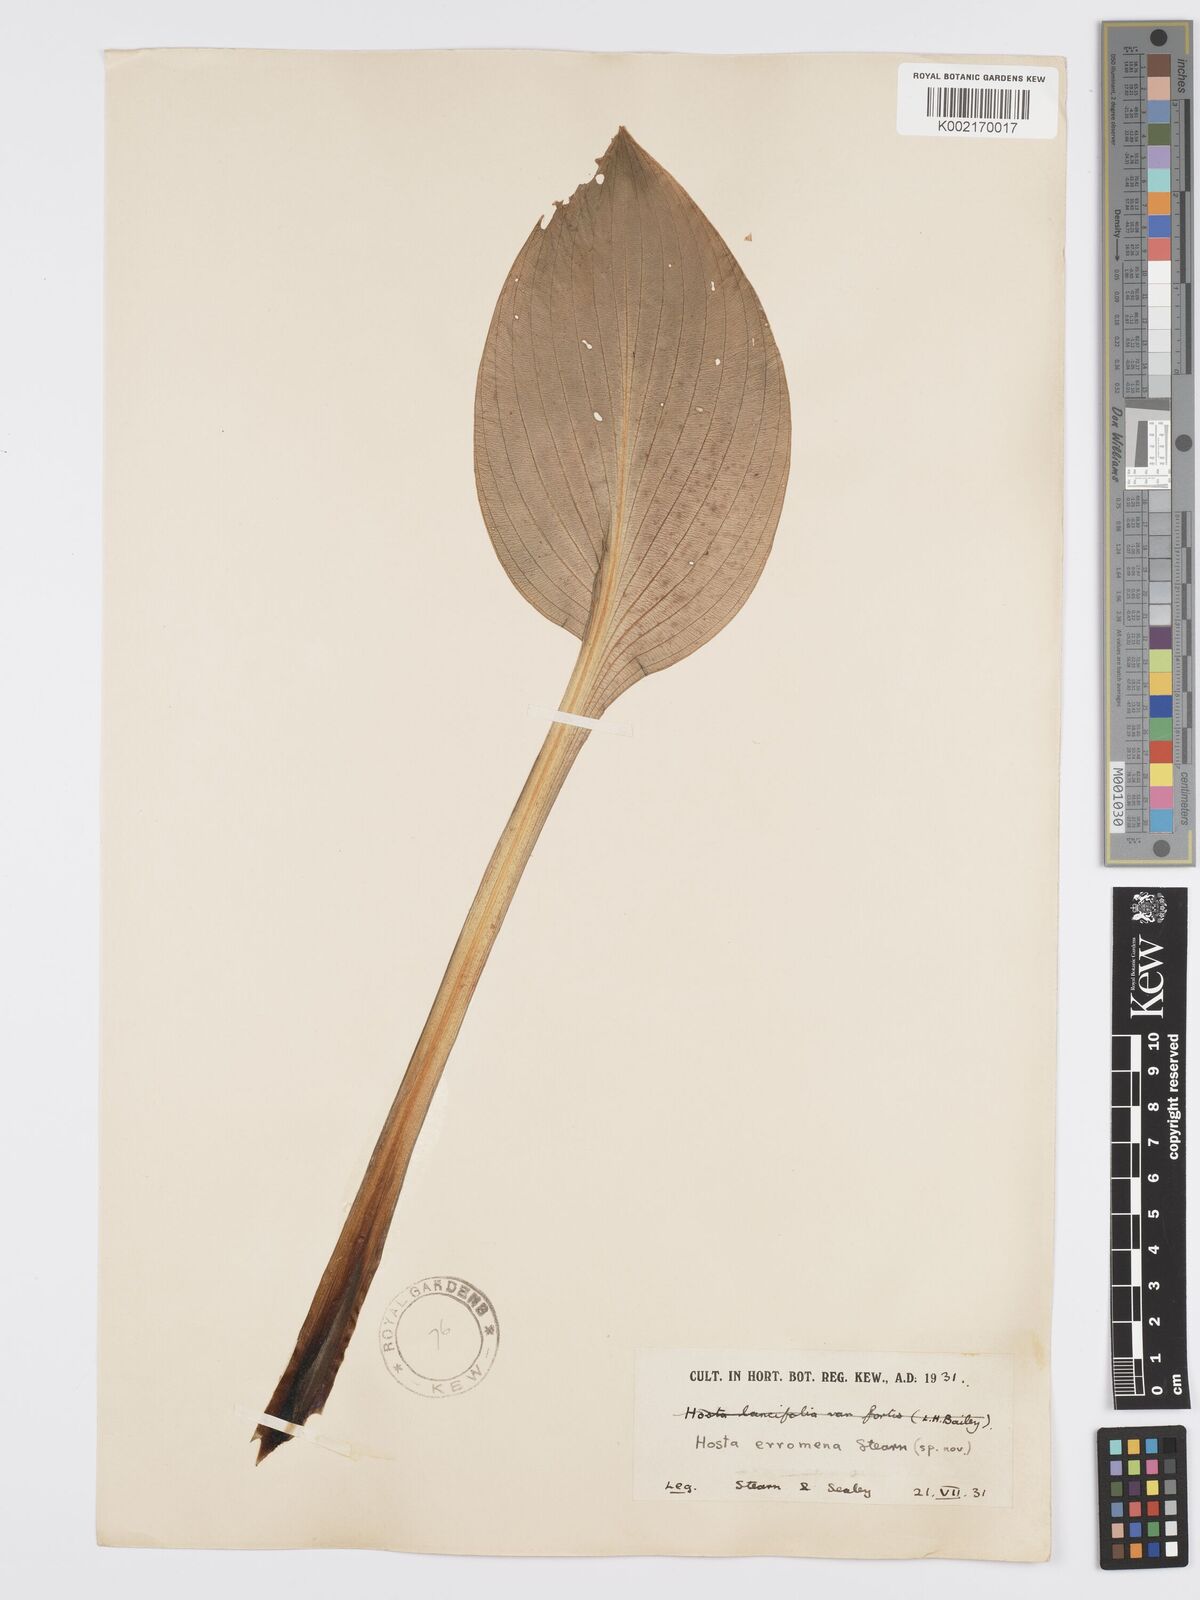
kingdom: Plantae
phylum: Tracheophyta
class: Liliopsida
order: Asparagales
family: Asparagaceae
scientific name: Asparagaceae
